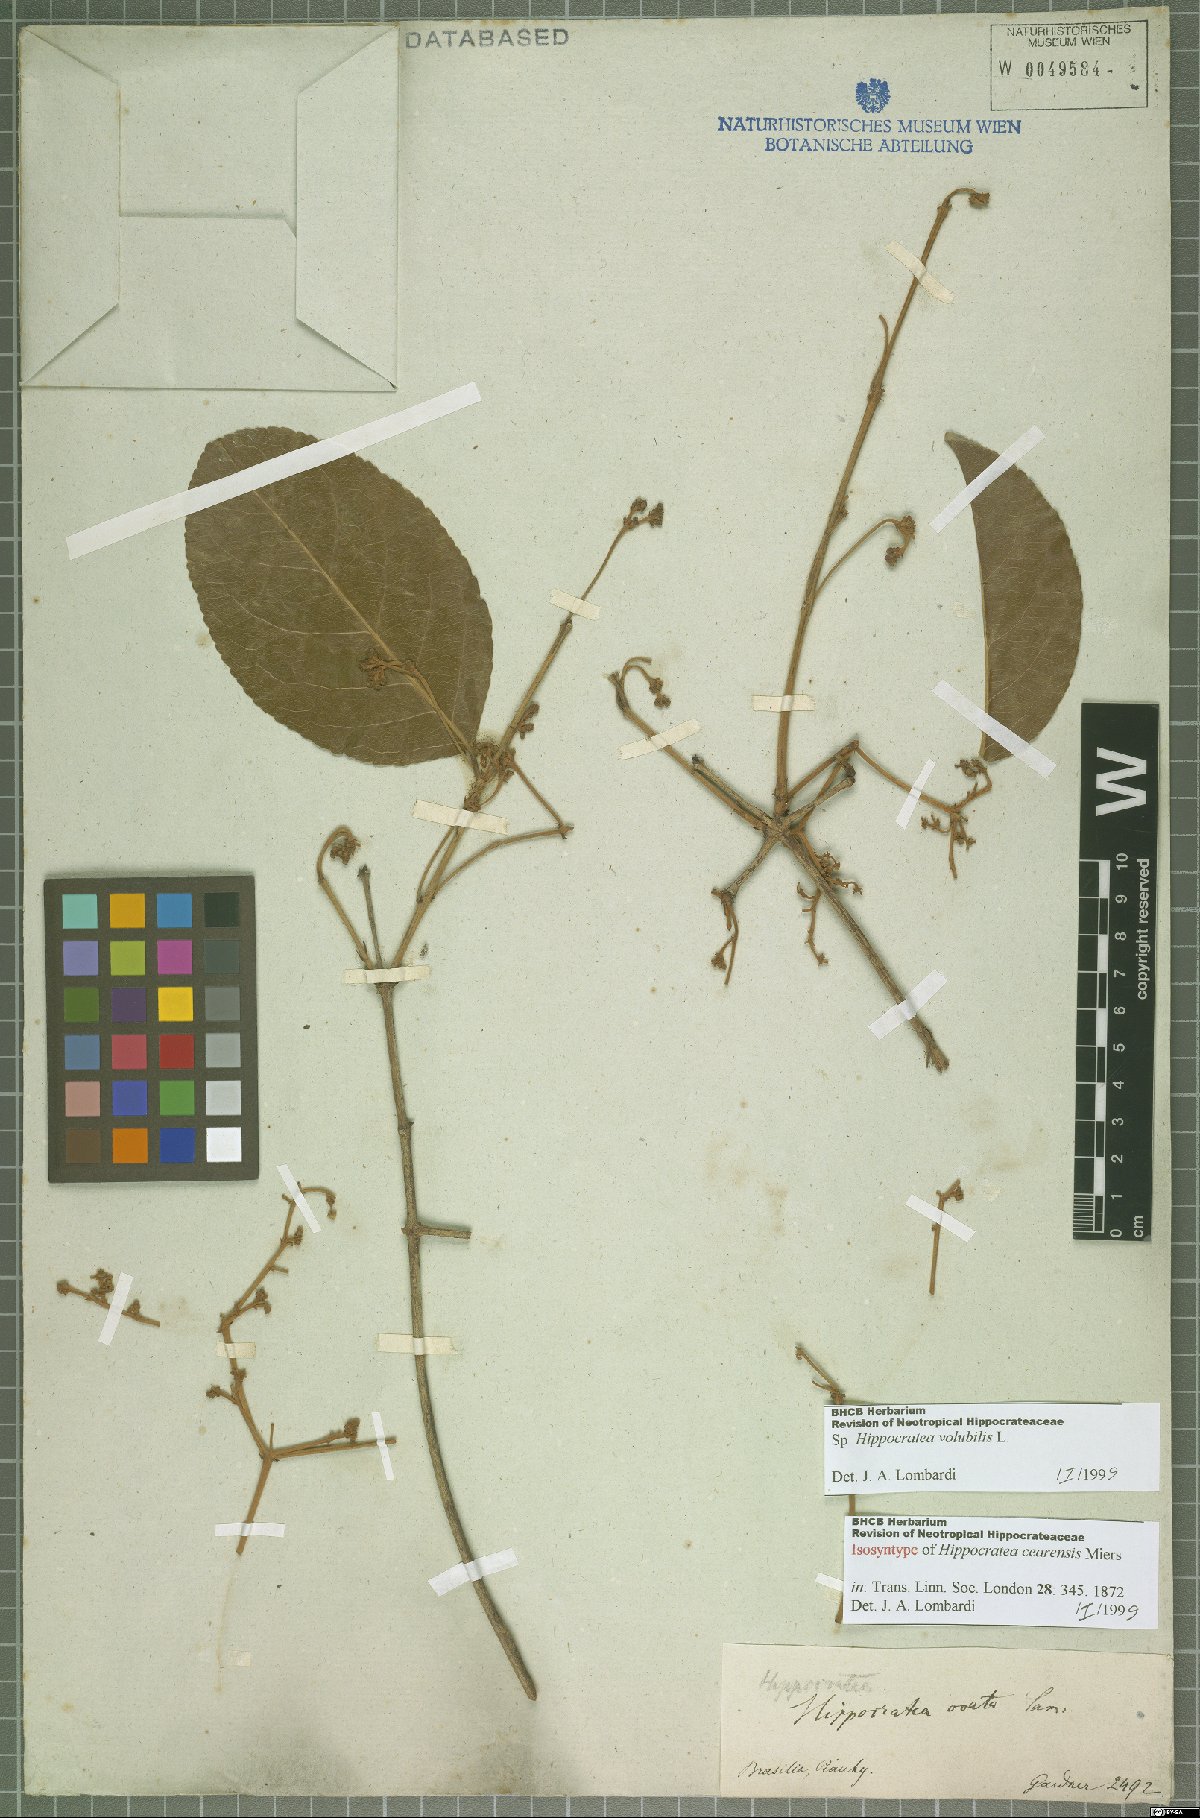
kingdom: Plantae
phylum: Tracheophyta
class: Magnoliopsida
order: Celastrales
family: Celastraceae
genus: Hippocratea
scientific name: Hippocratea volubilis
